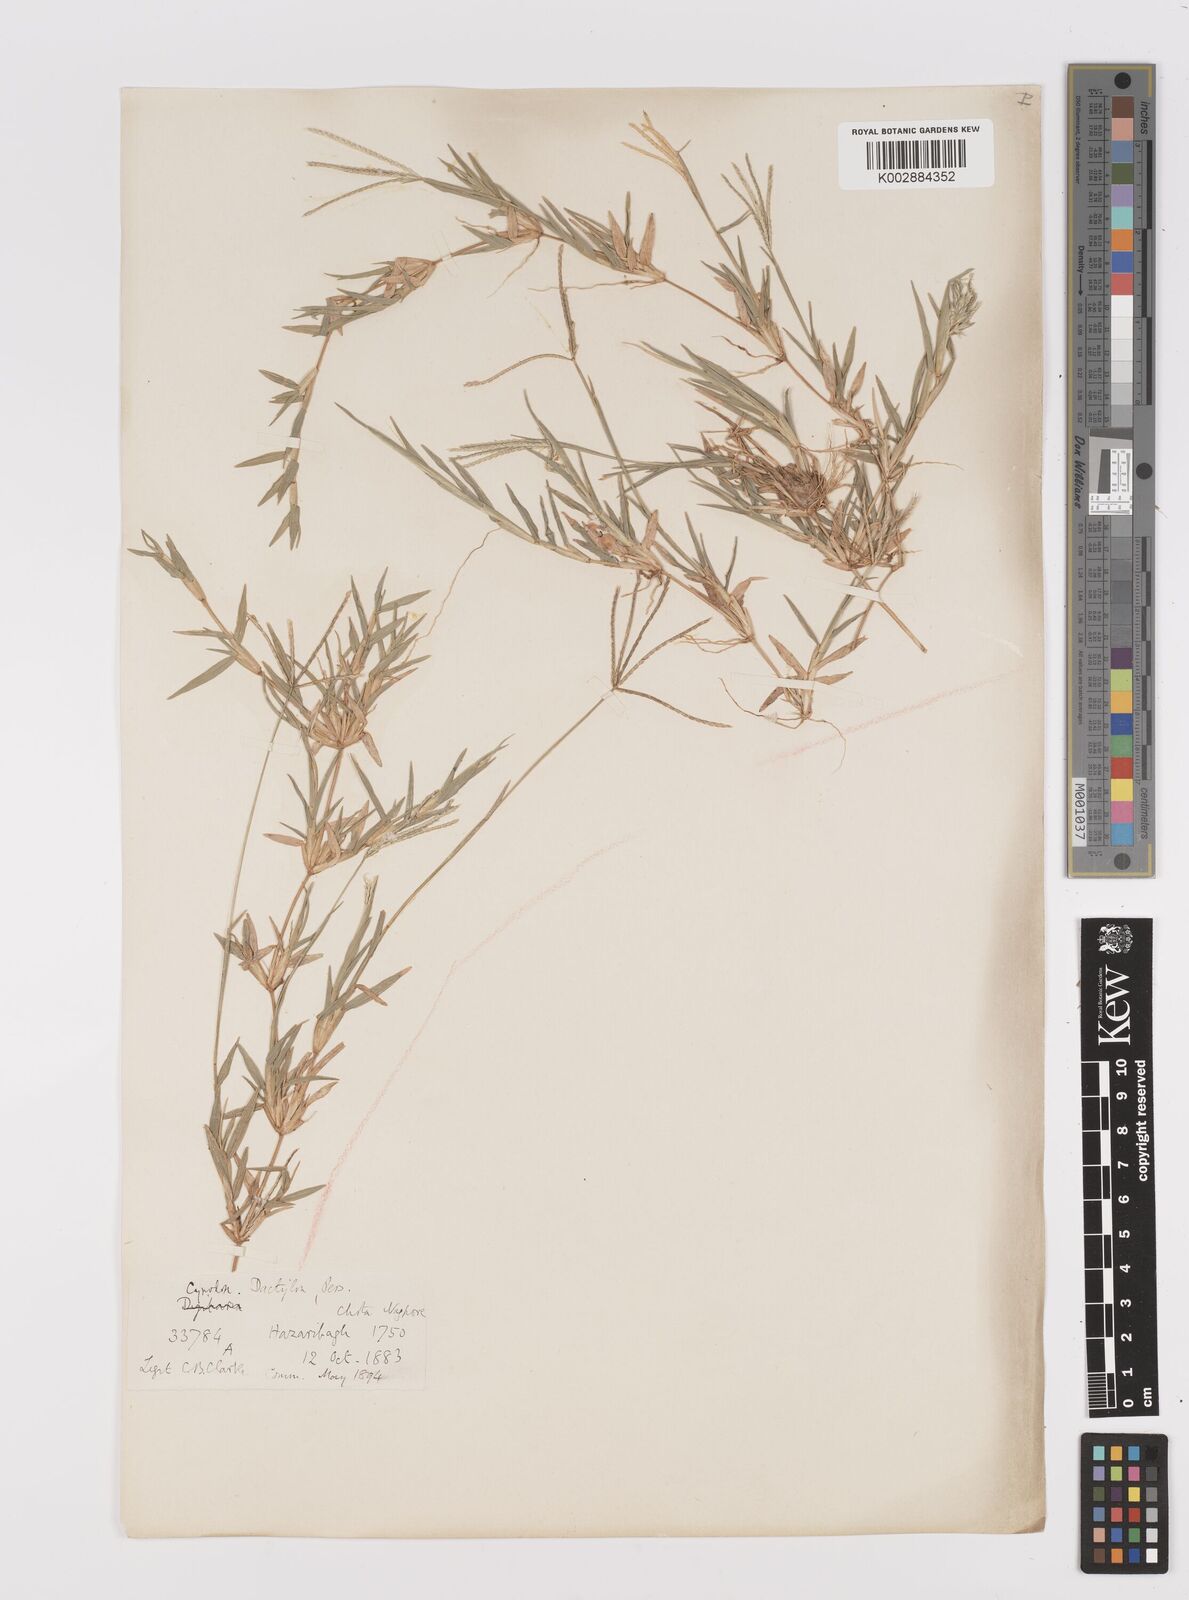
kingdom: Plantae
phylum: Tracheophyta
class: Liliopsida
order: Poales
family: Poaceae
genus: Cynodon
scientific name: Cynodon dactylon
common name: Bermuda grass
